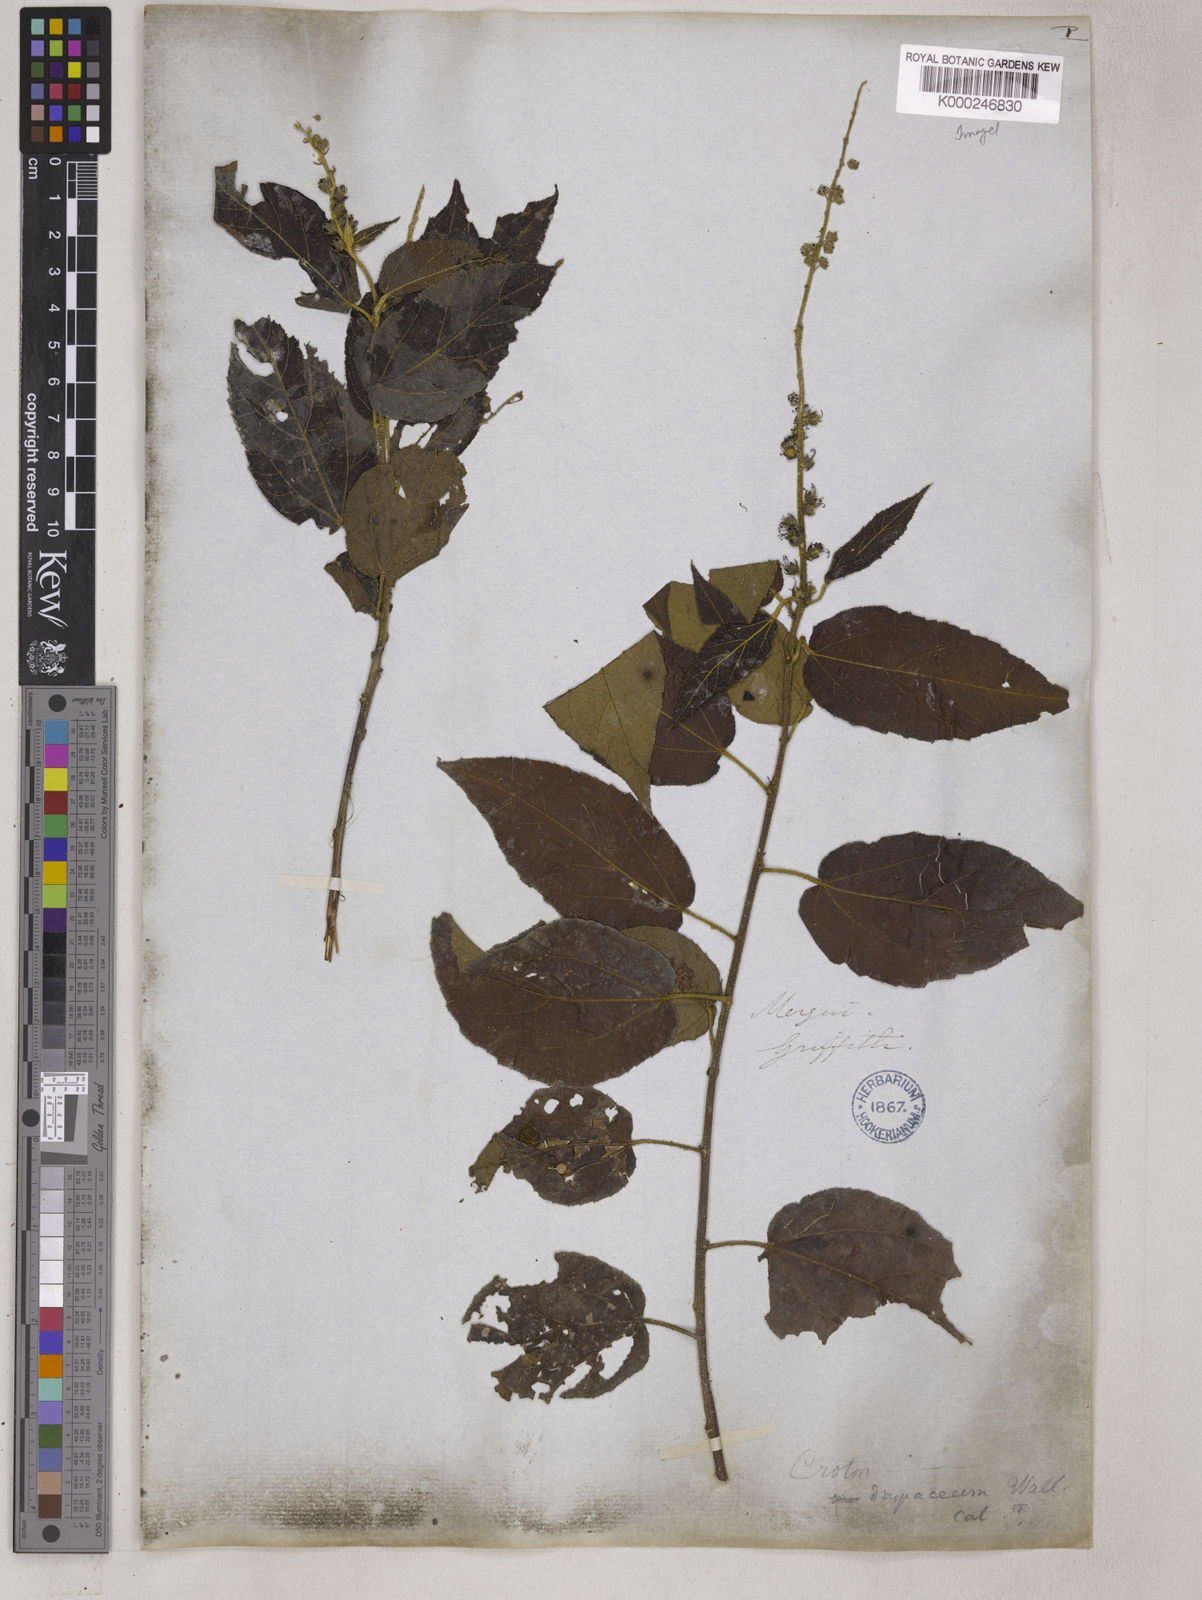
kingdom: Plantae
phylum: Tracheophyta
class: Magnoliopsida
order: Malpighiales
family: Euphorbiaceae
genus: Croton
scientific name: Croton caudatus
